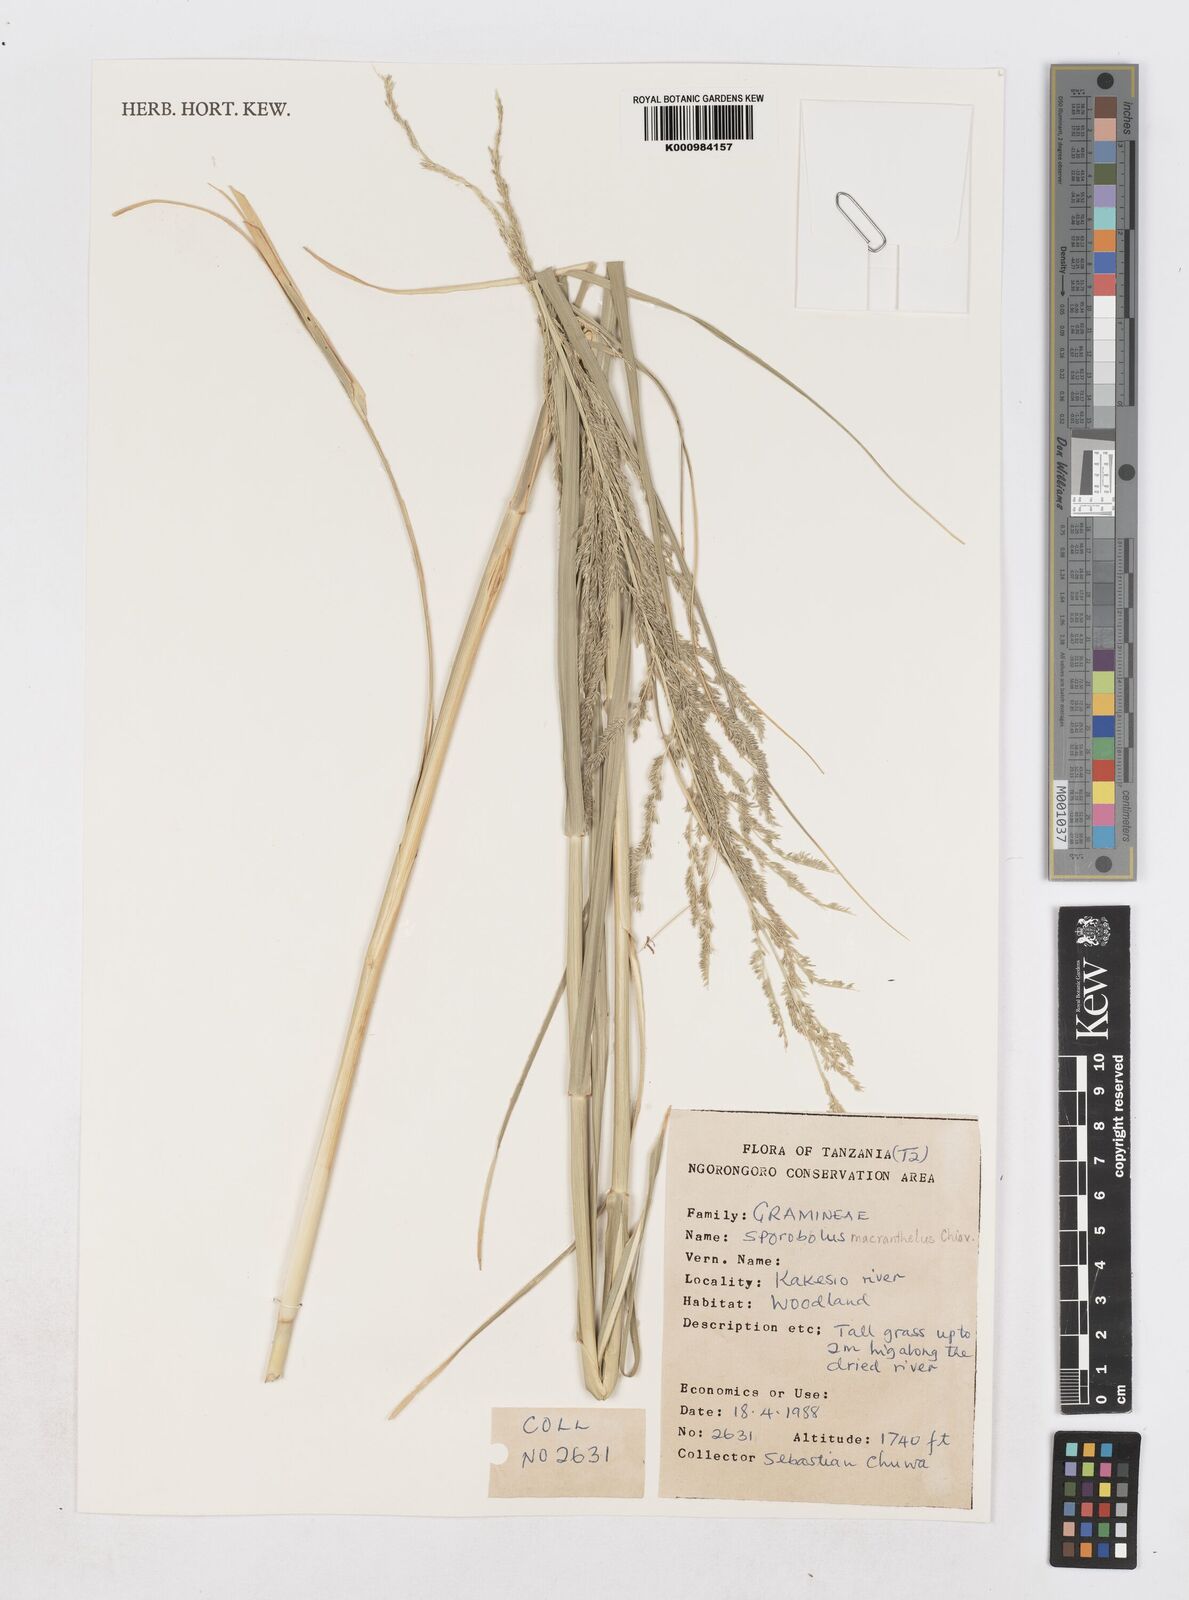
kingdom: Plantae
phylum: Tracheophyta
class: Liliopsida
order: Poales
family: Poaceae
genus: Sporobolus
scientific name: Sporobolus macranthelus
